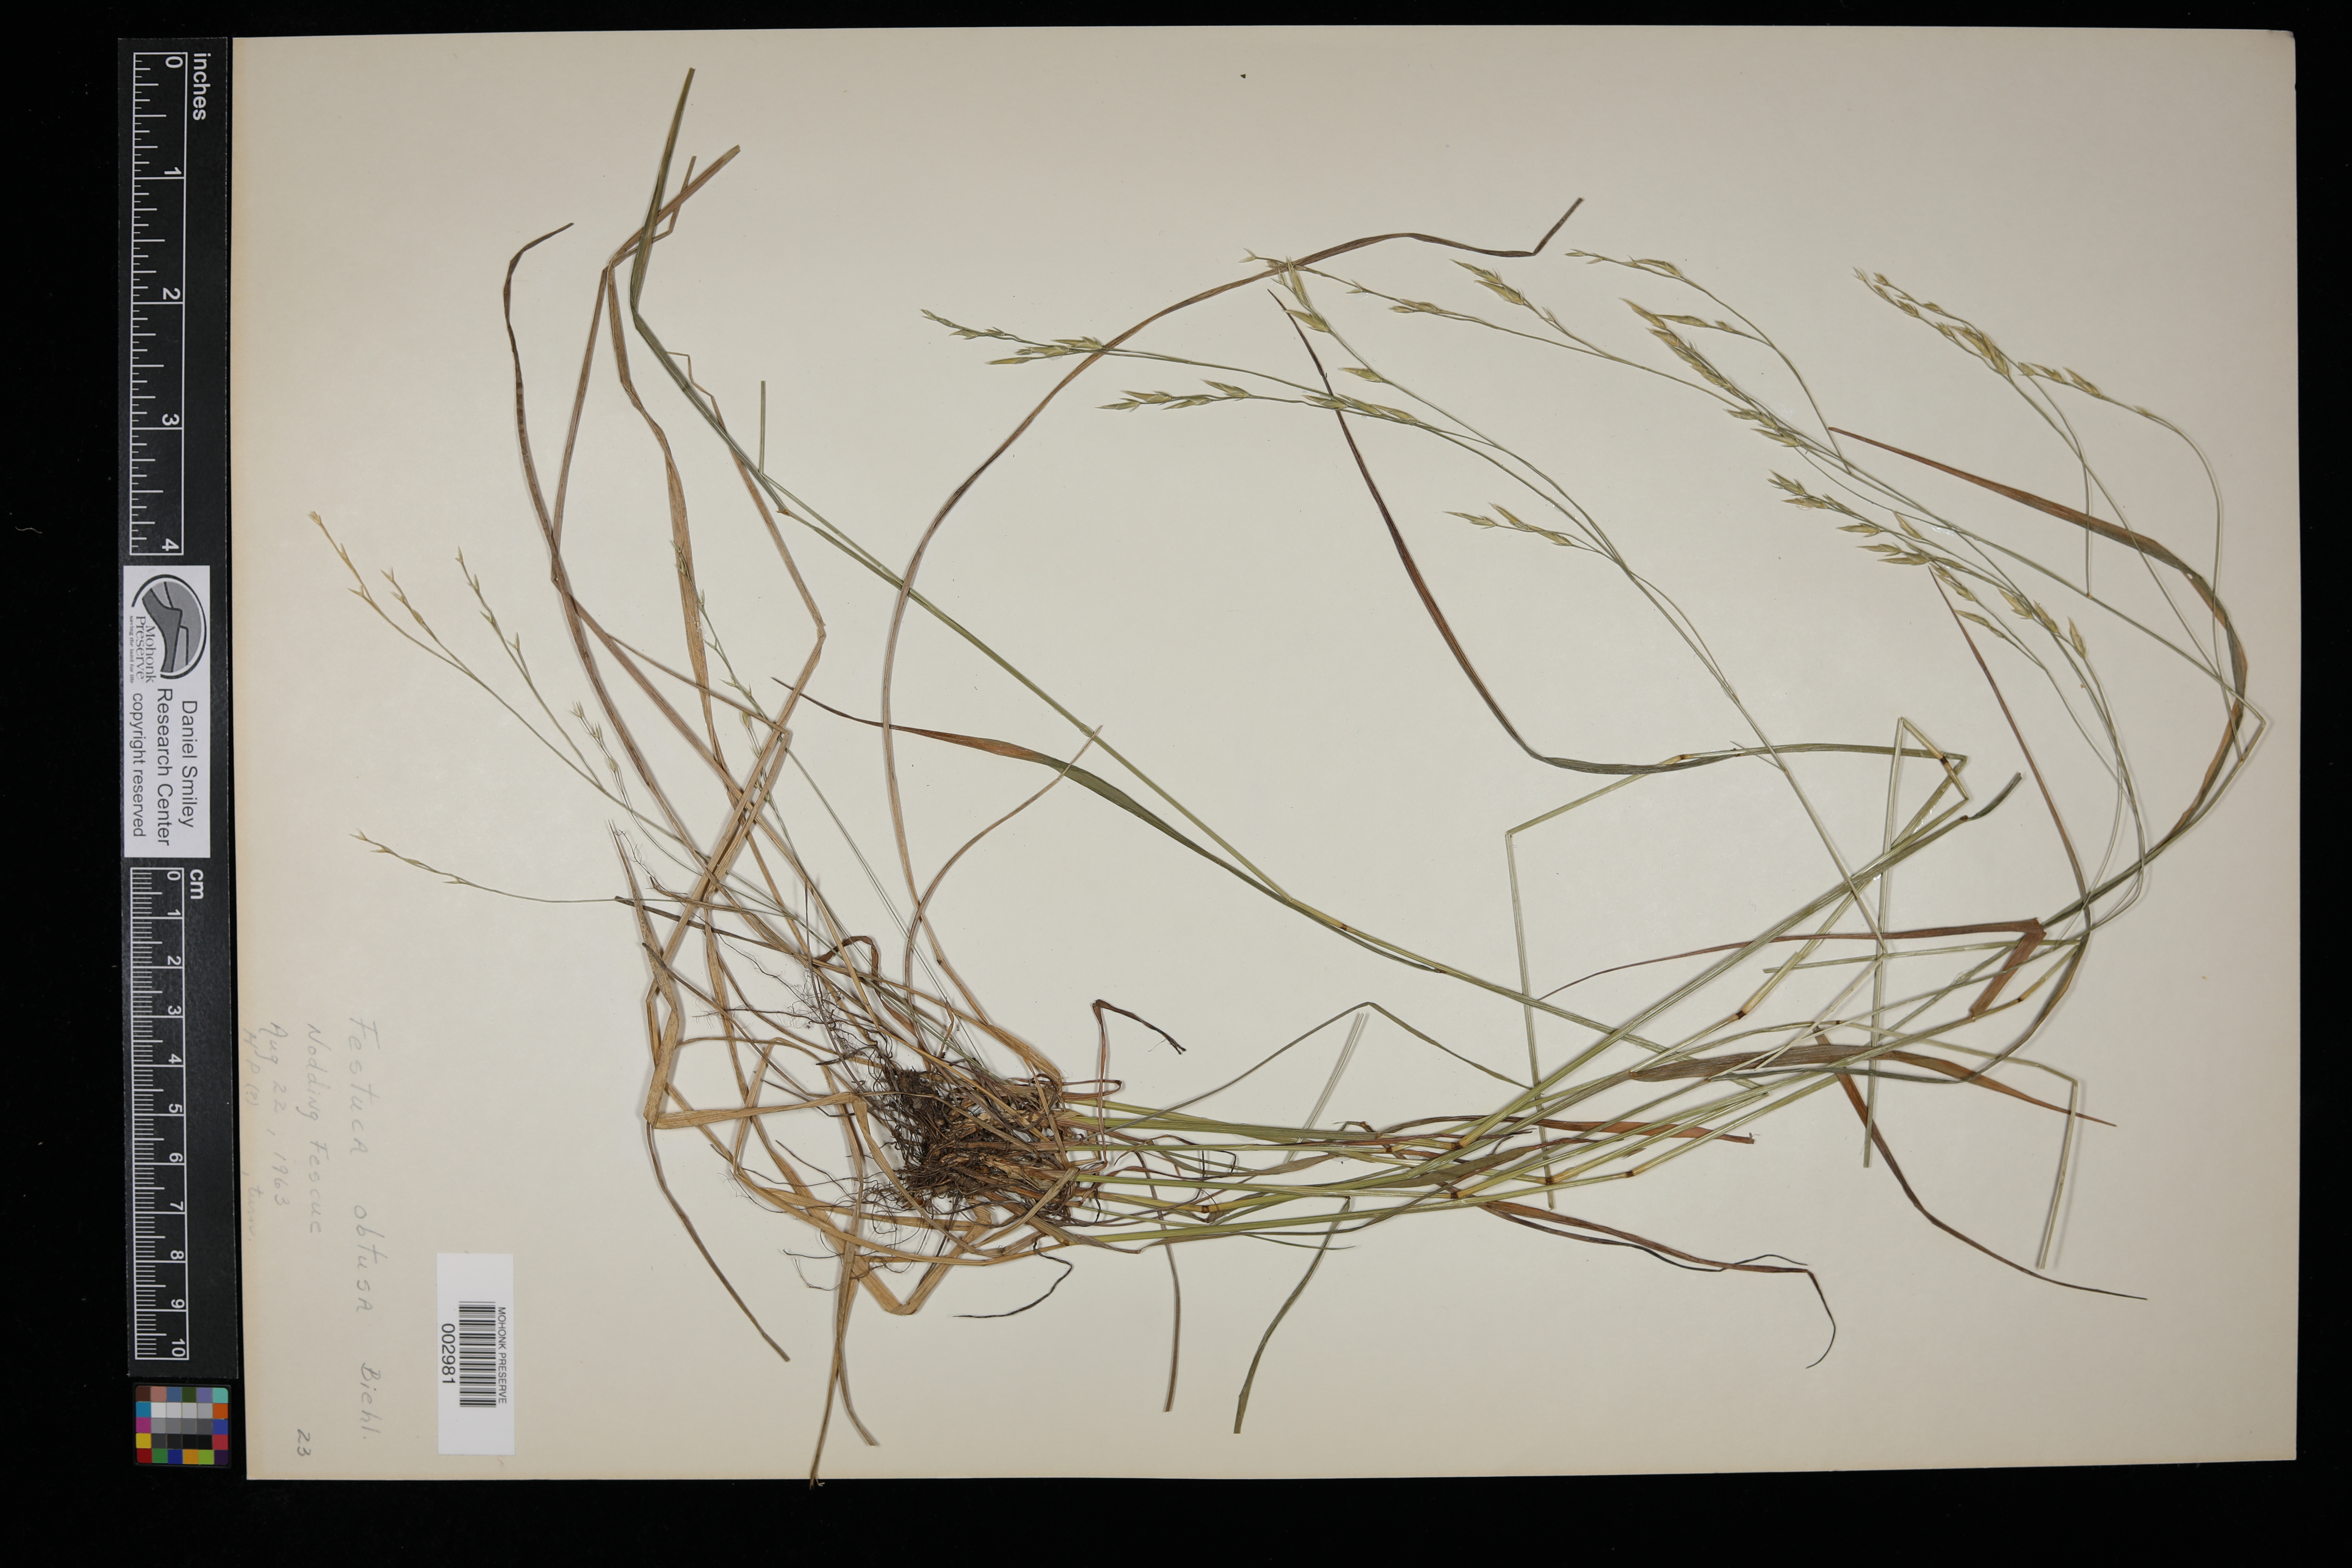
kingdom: Plantae
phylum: Tracheophyta
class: Liliopsida
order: Poales
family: Poaceae
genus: Festuca
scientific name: Festuca subverticillata
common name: Nodding fescue
